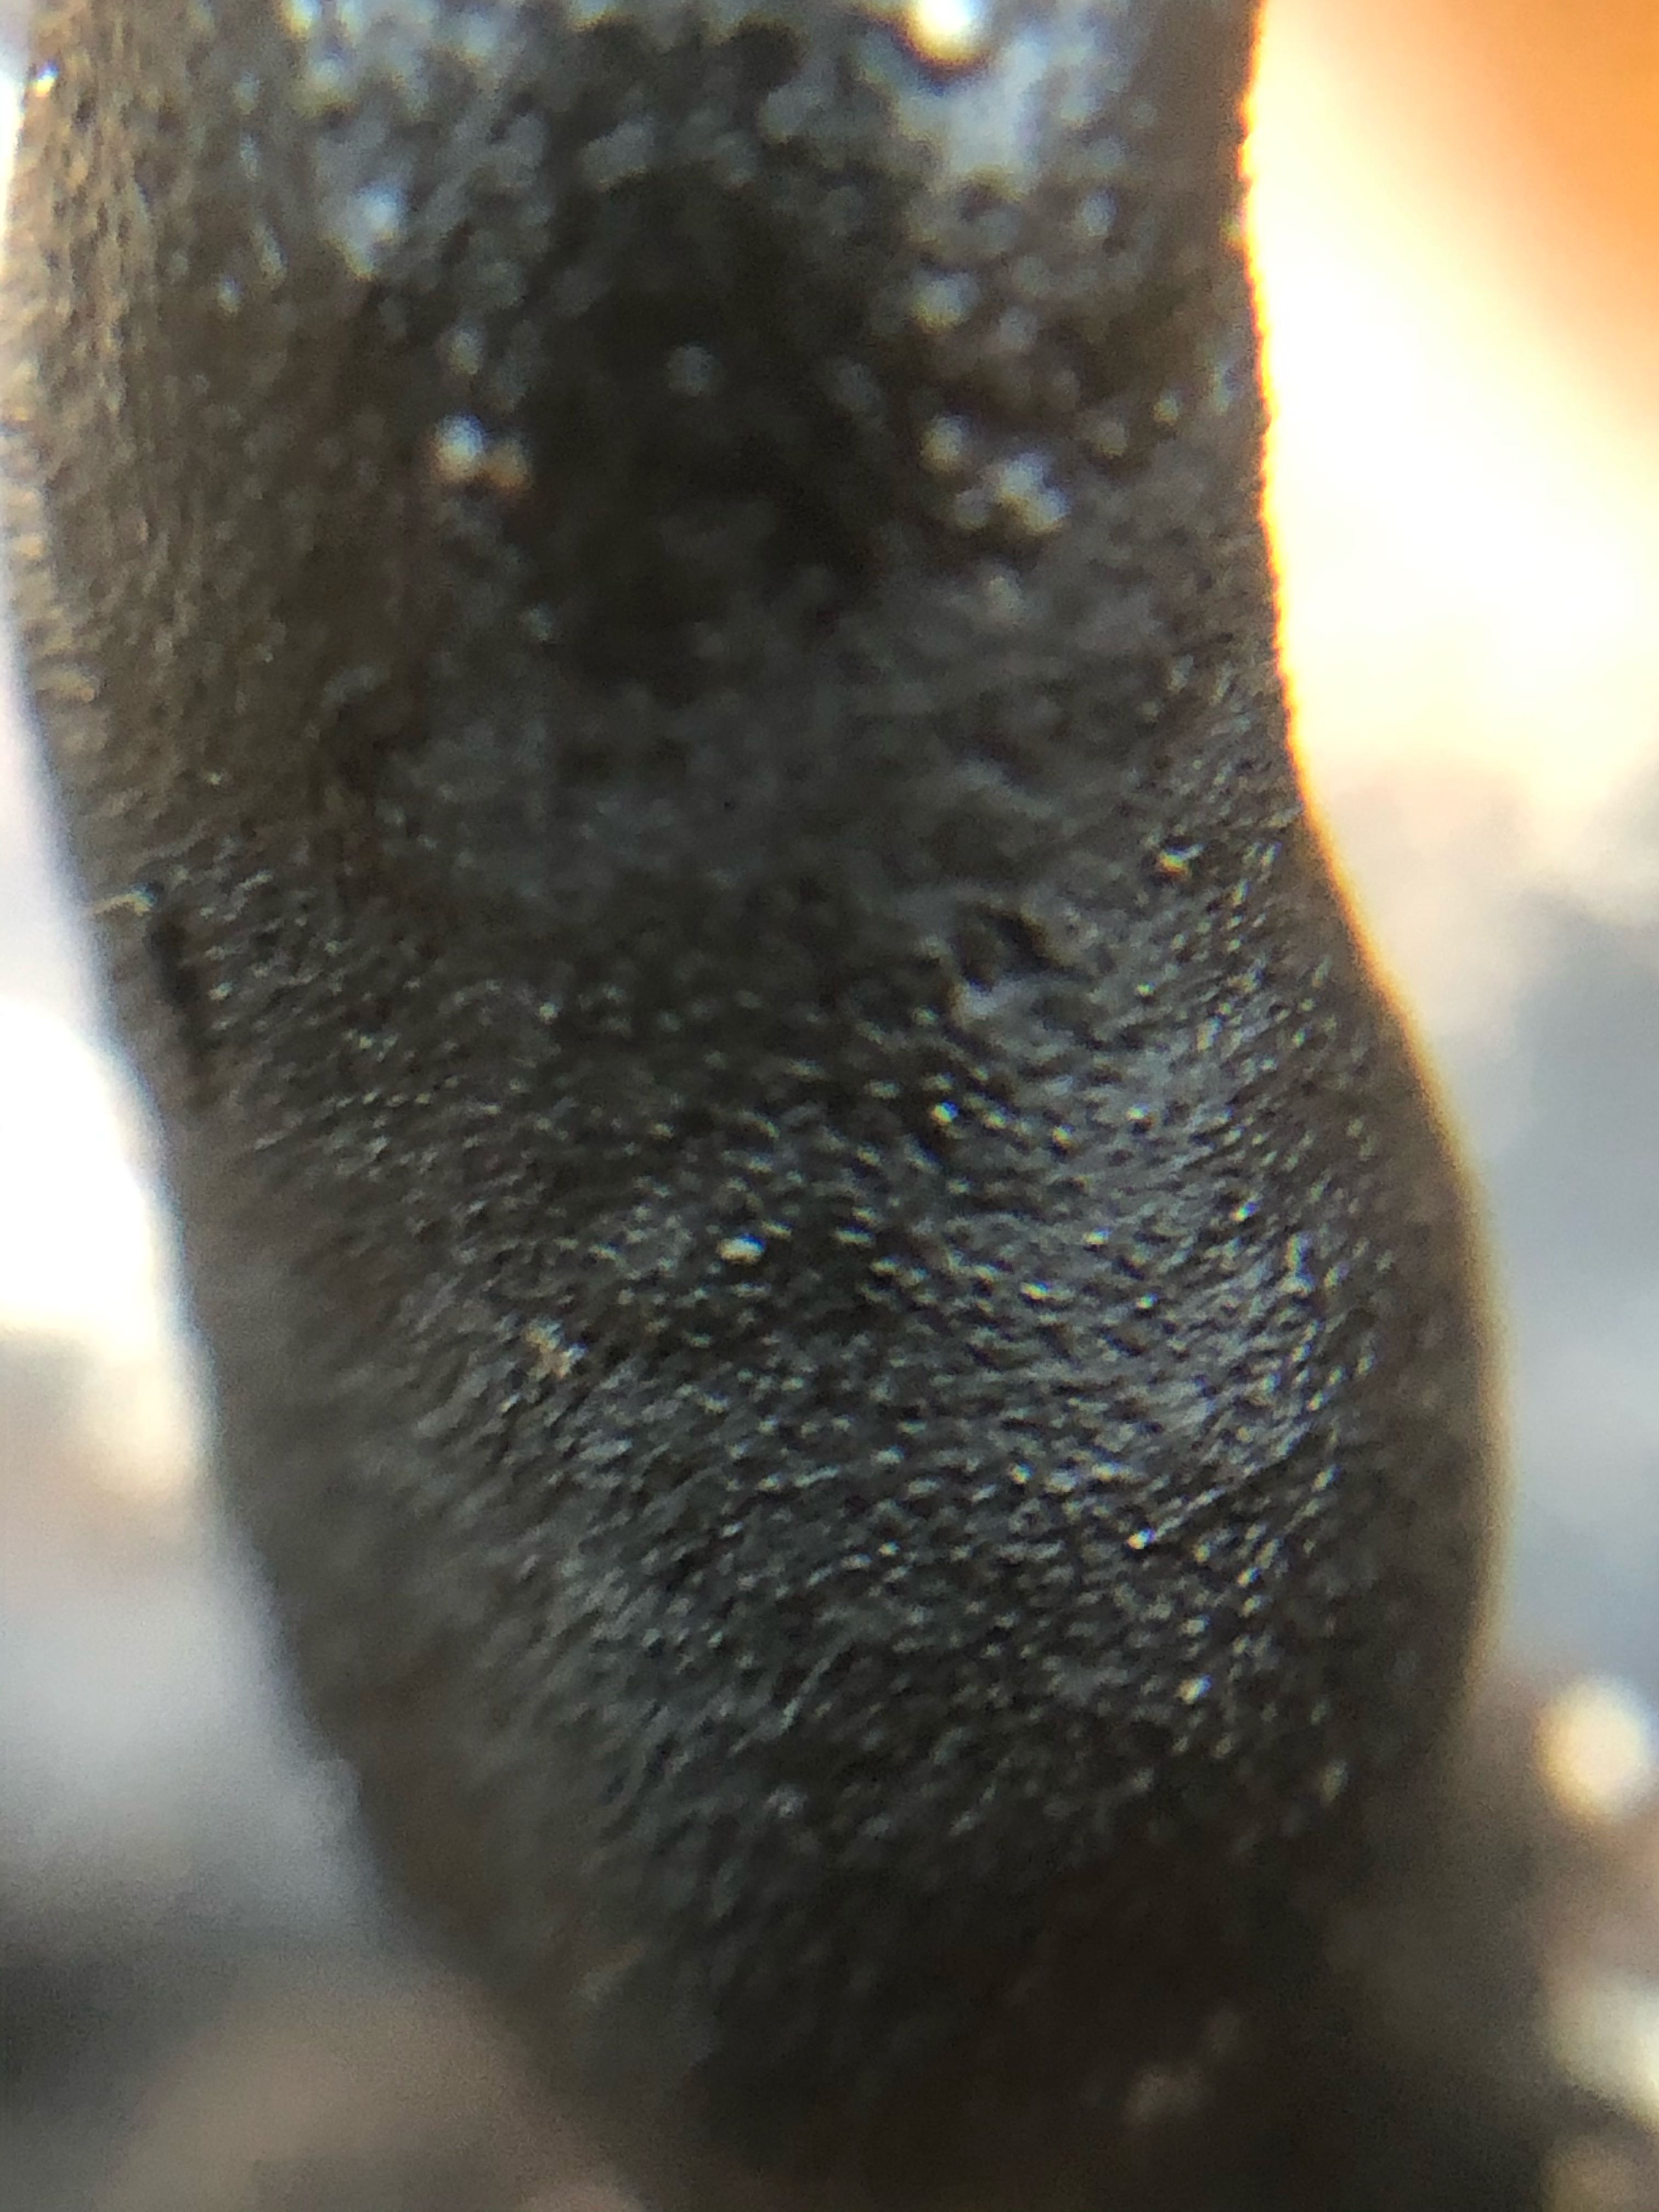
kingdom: Fungi
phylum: Ascomycota
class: Sordariomycetes
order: Xylariales
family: Xylariaceae
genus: Xylaria
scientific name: Xylaria longipes
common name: slank stødsvamp
